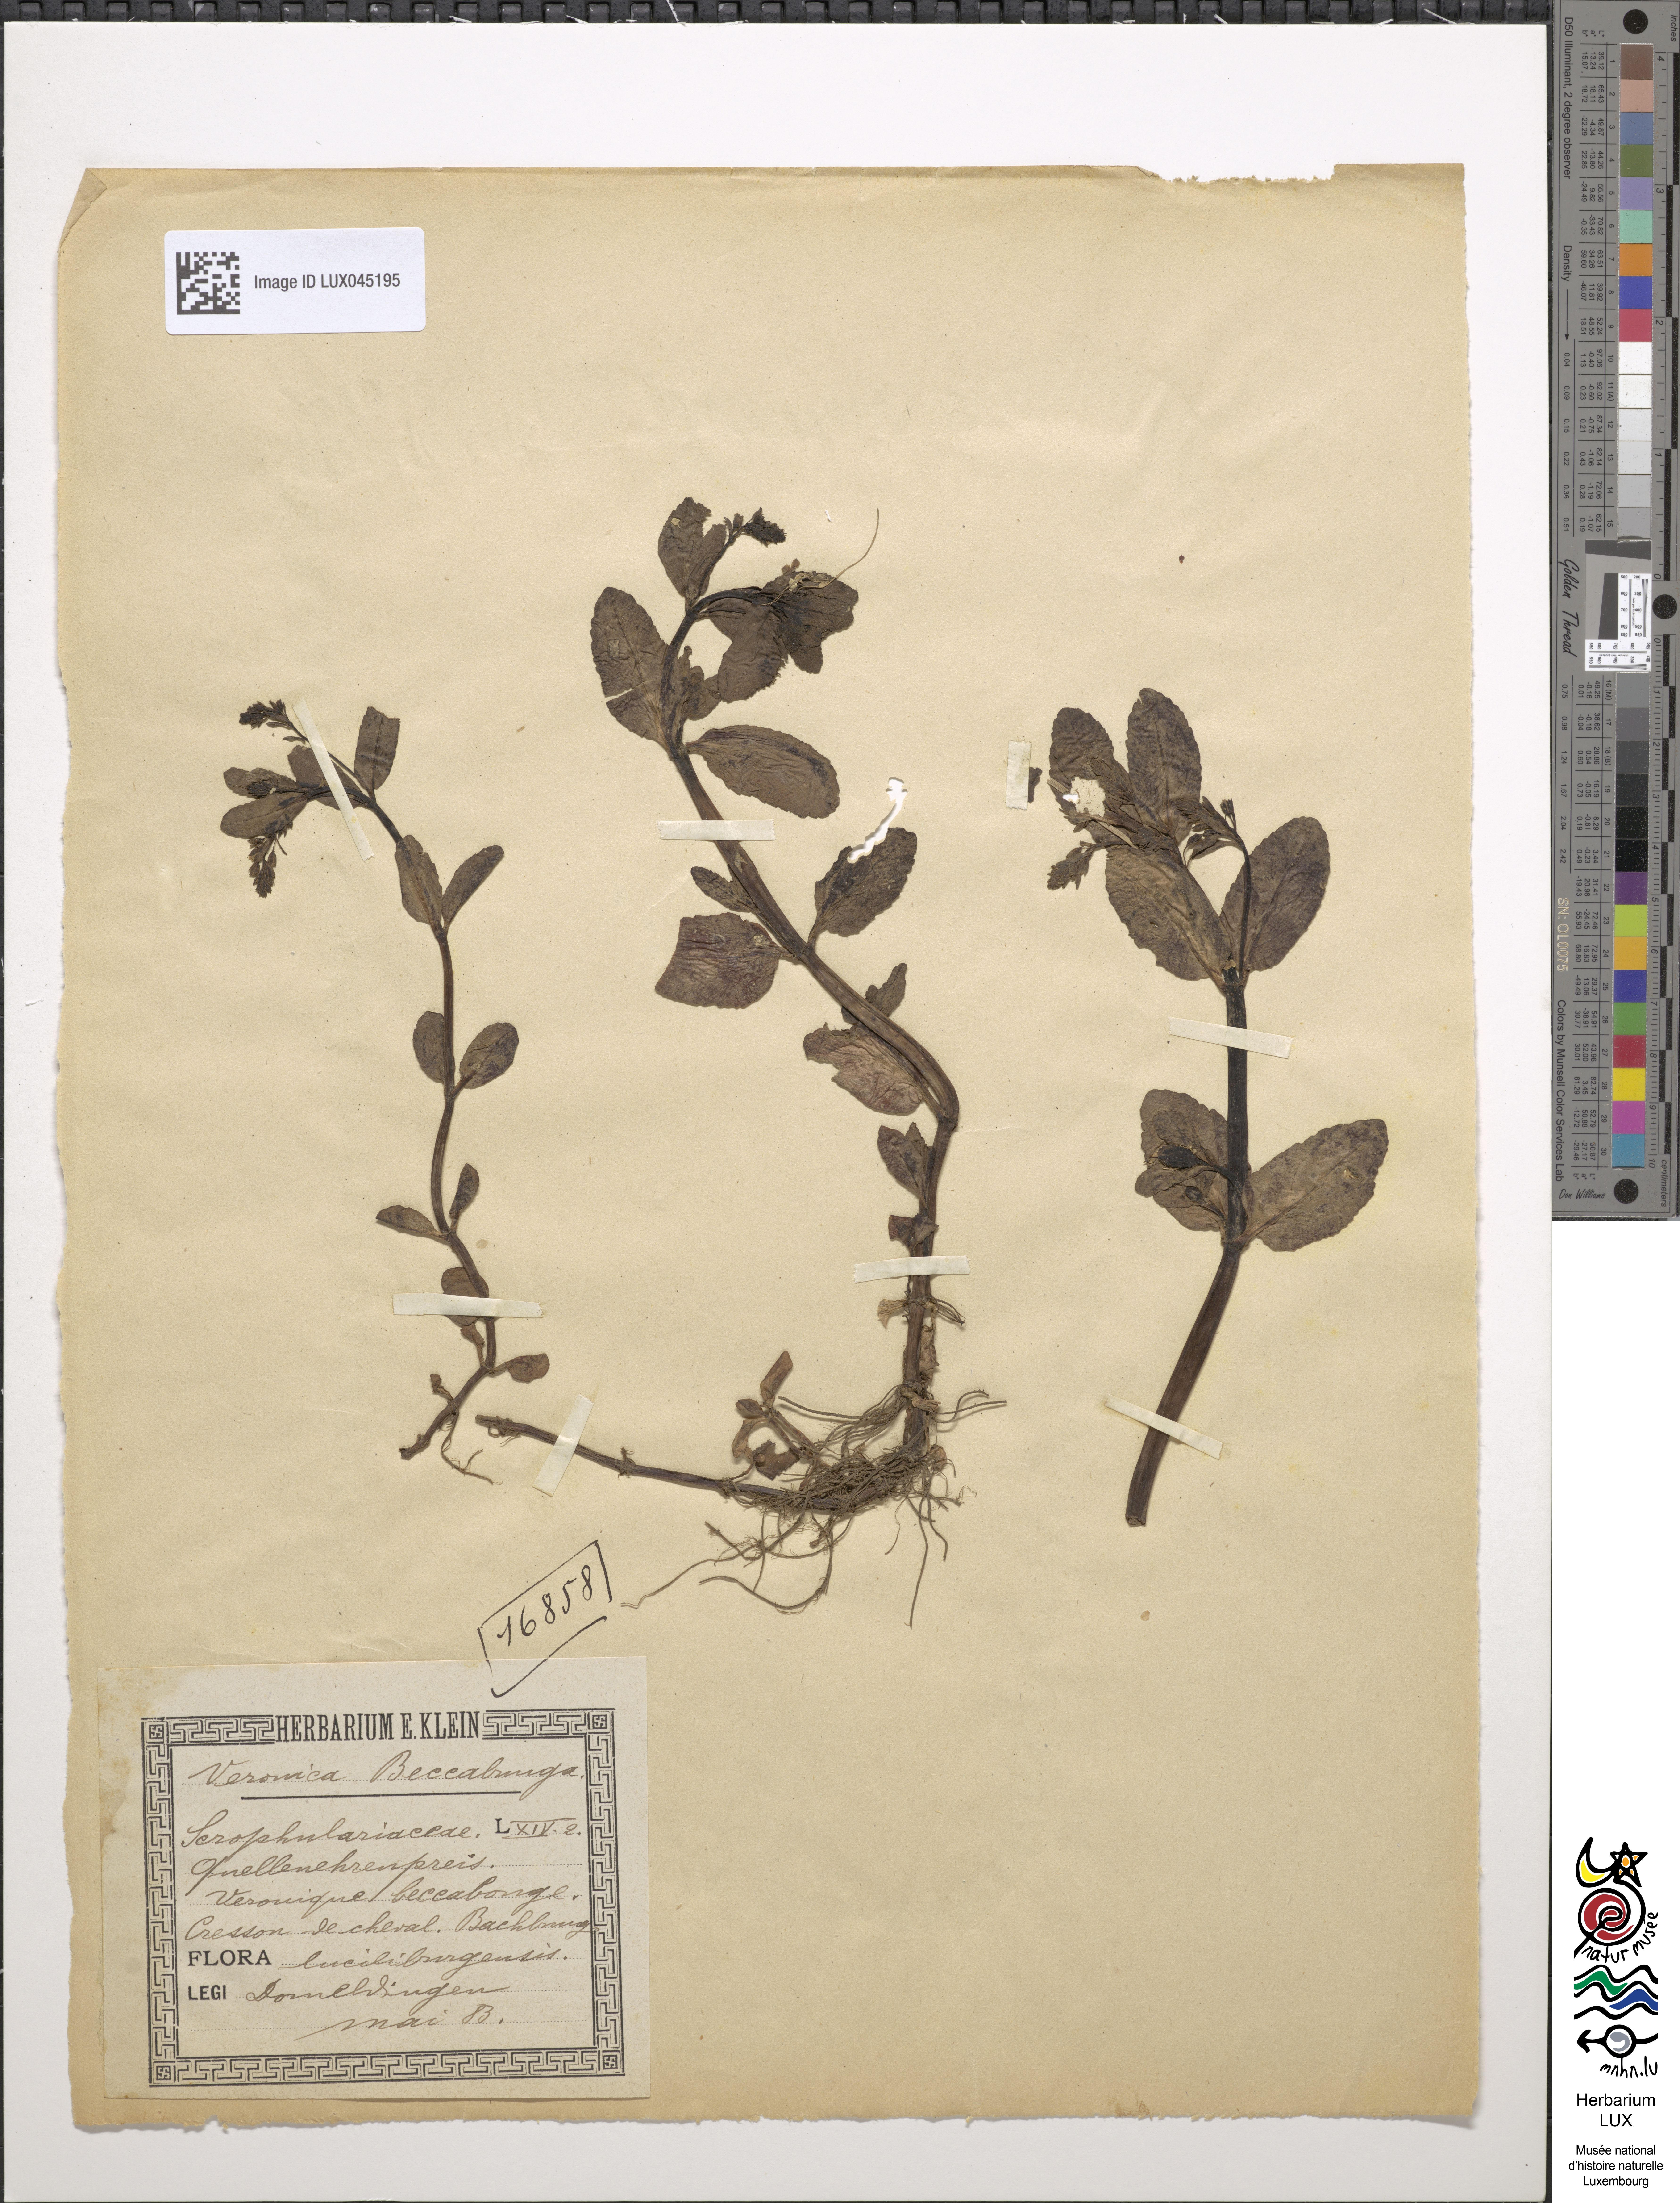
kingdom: Plantae
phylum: Tracheophyta
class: Magnoliopsida
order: Lamiales
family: Plantaginaceae
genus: Veronica
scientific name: Veronica beccabunga
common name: Brooklime
